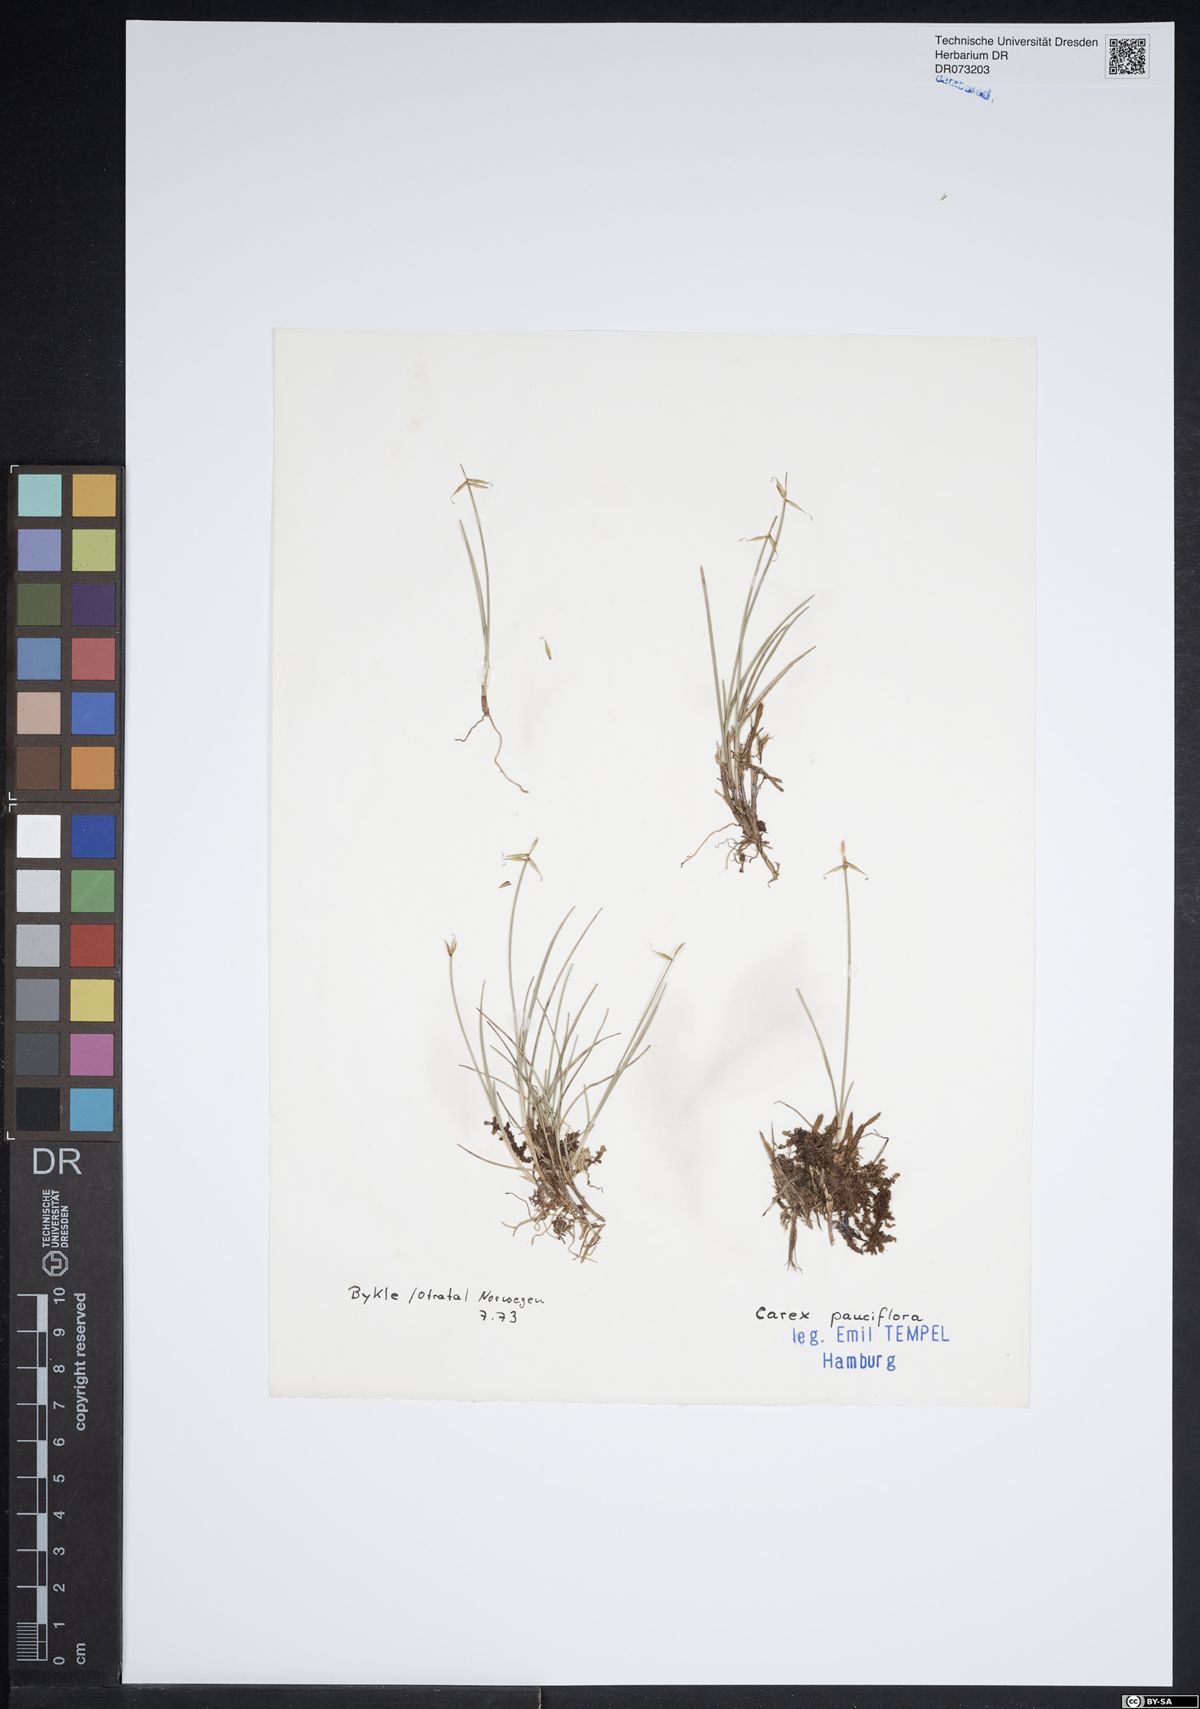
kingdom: Plantae
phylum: Tracheophyta
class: Liliopsida
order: Poales
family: Cyperaceae
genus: Carex
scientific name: Carex pauciflora
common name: Few-flowered sedge
